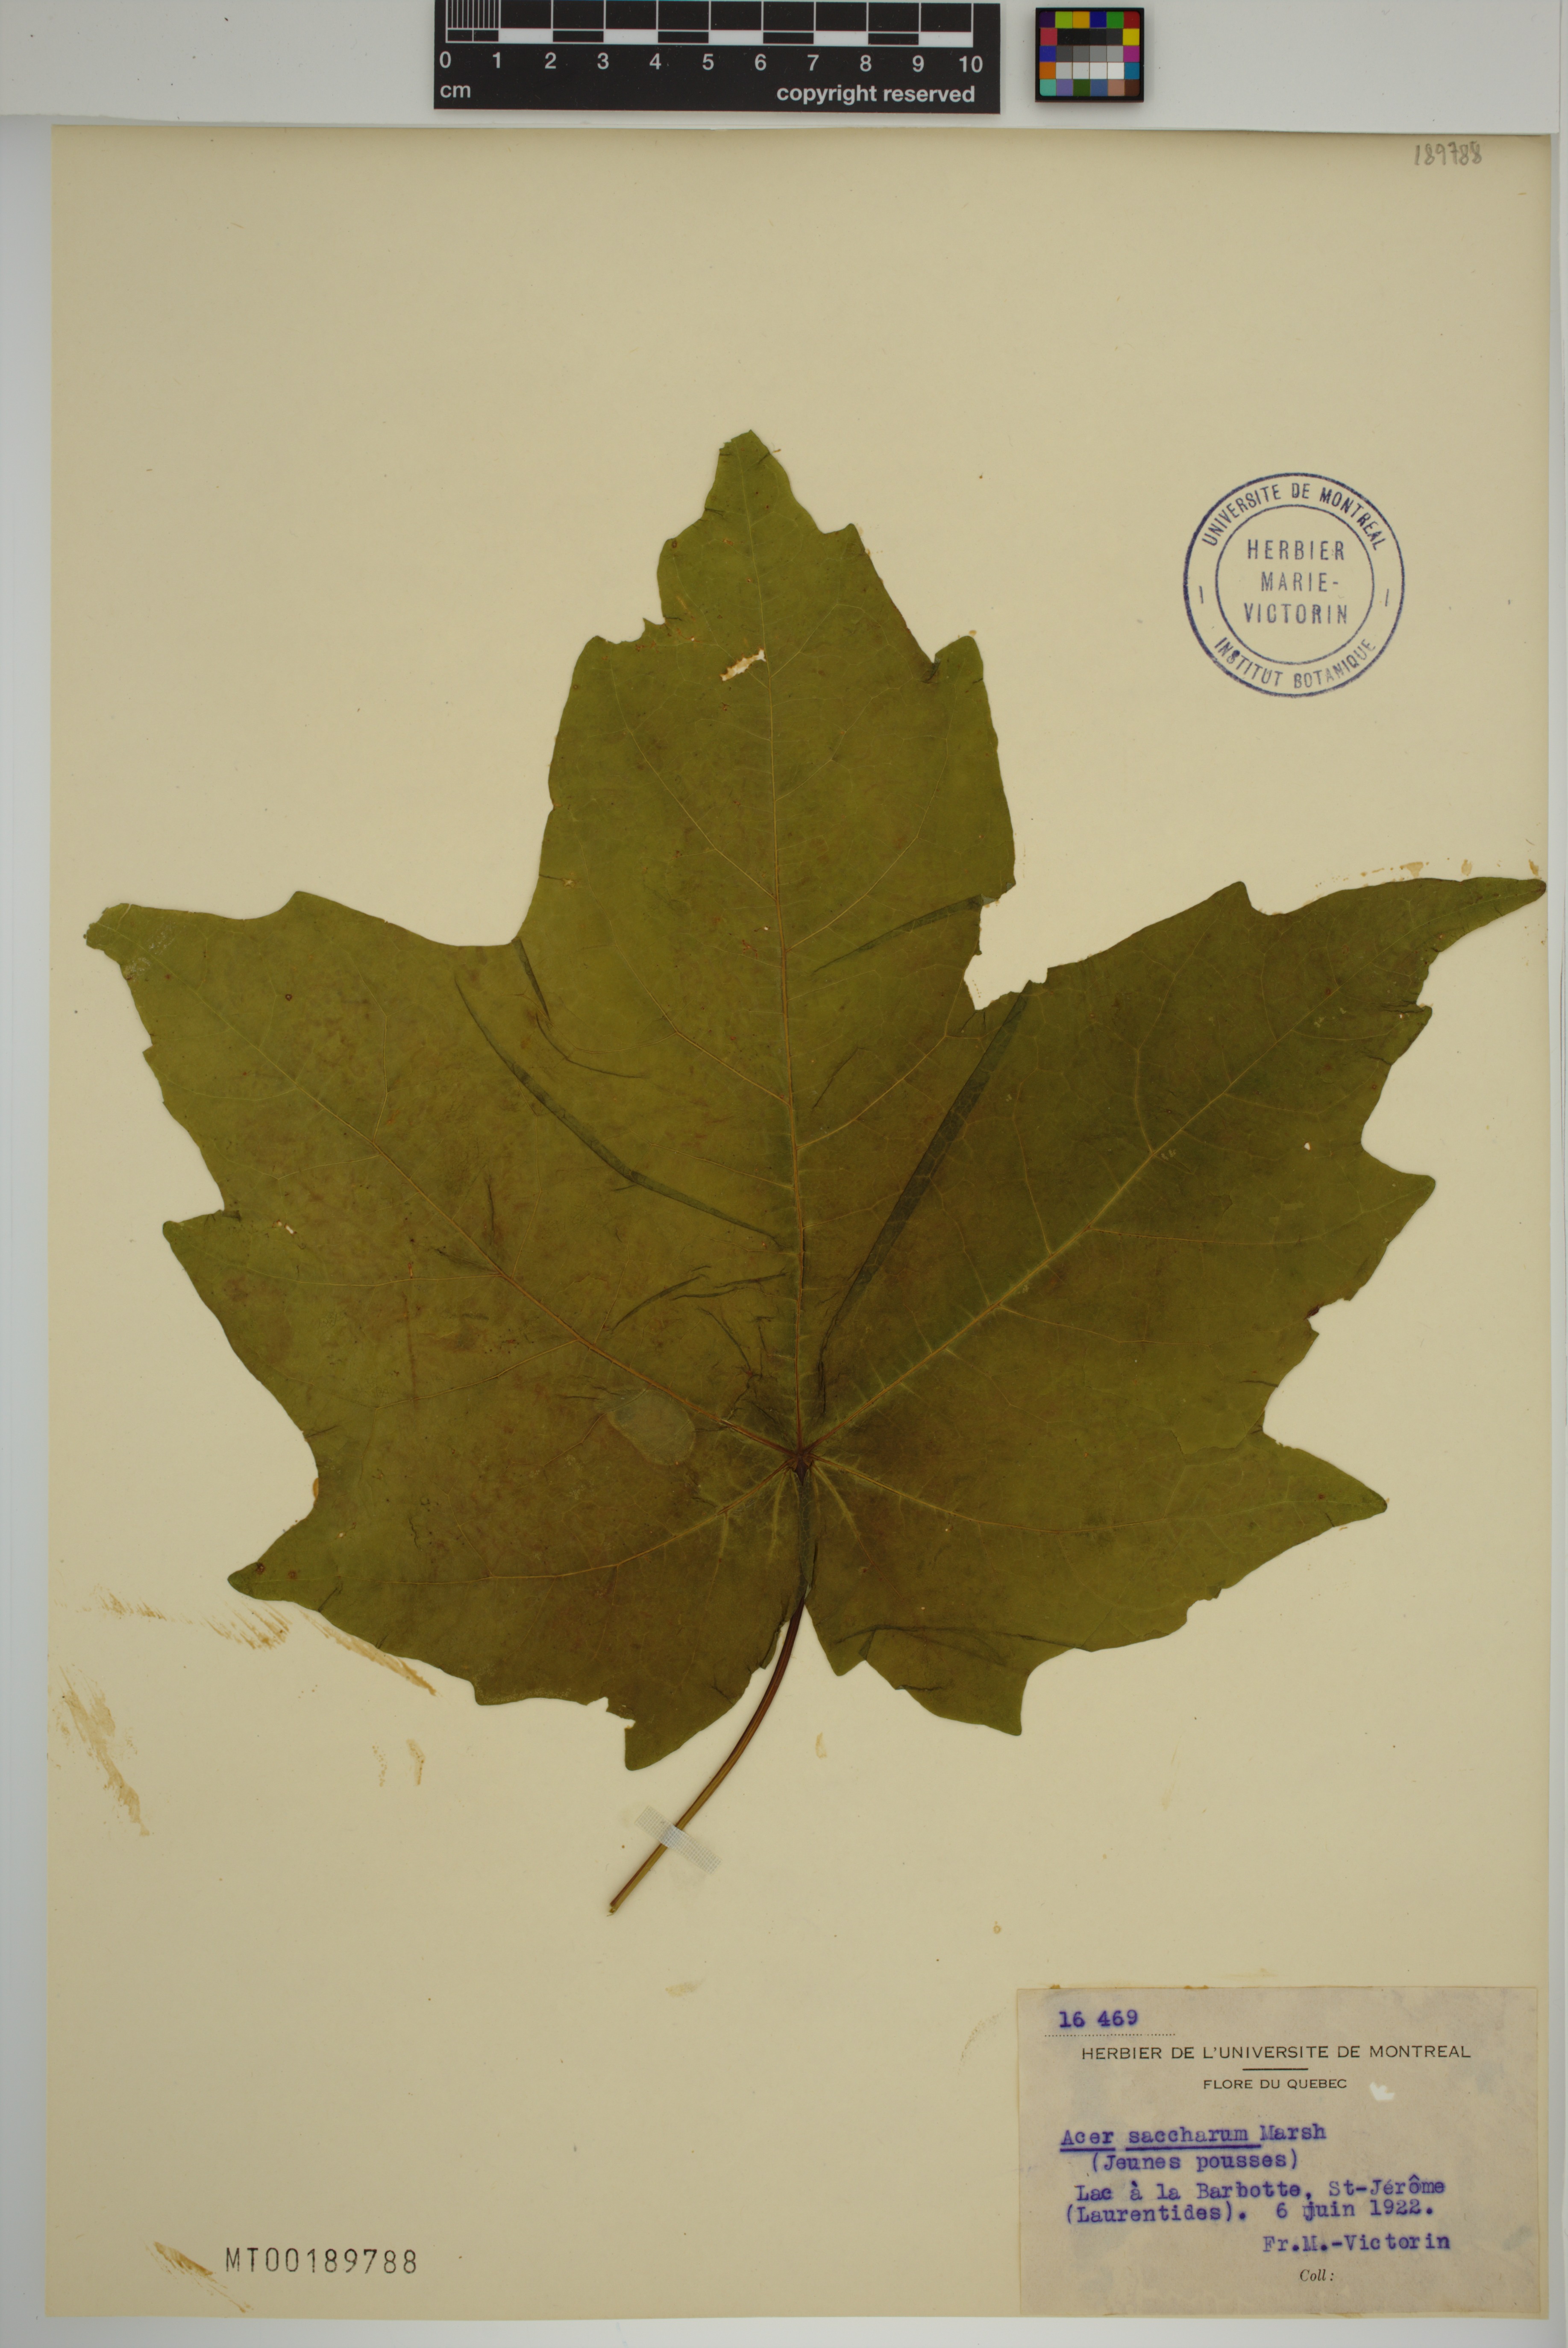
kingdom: Plantae
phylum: Tracheophyta
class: Magnoliopsida
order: Sapindales
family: Sapindaceae
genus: Acer
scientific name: Acer saccharum
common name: Sugar maple
